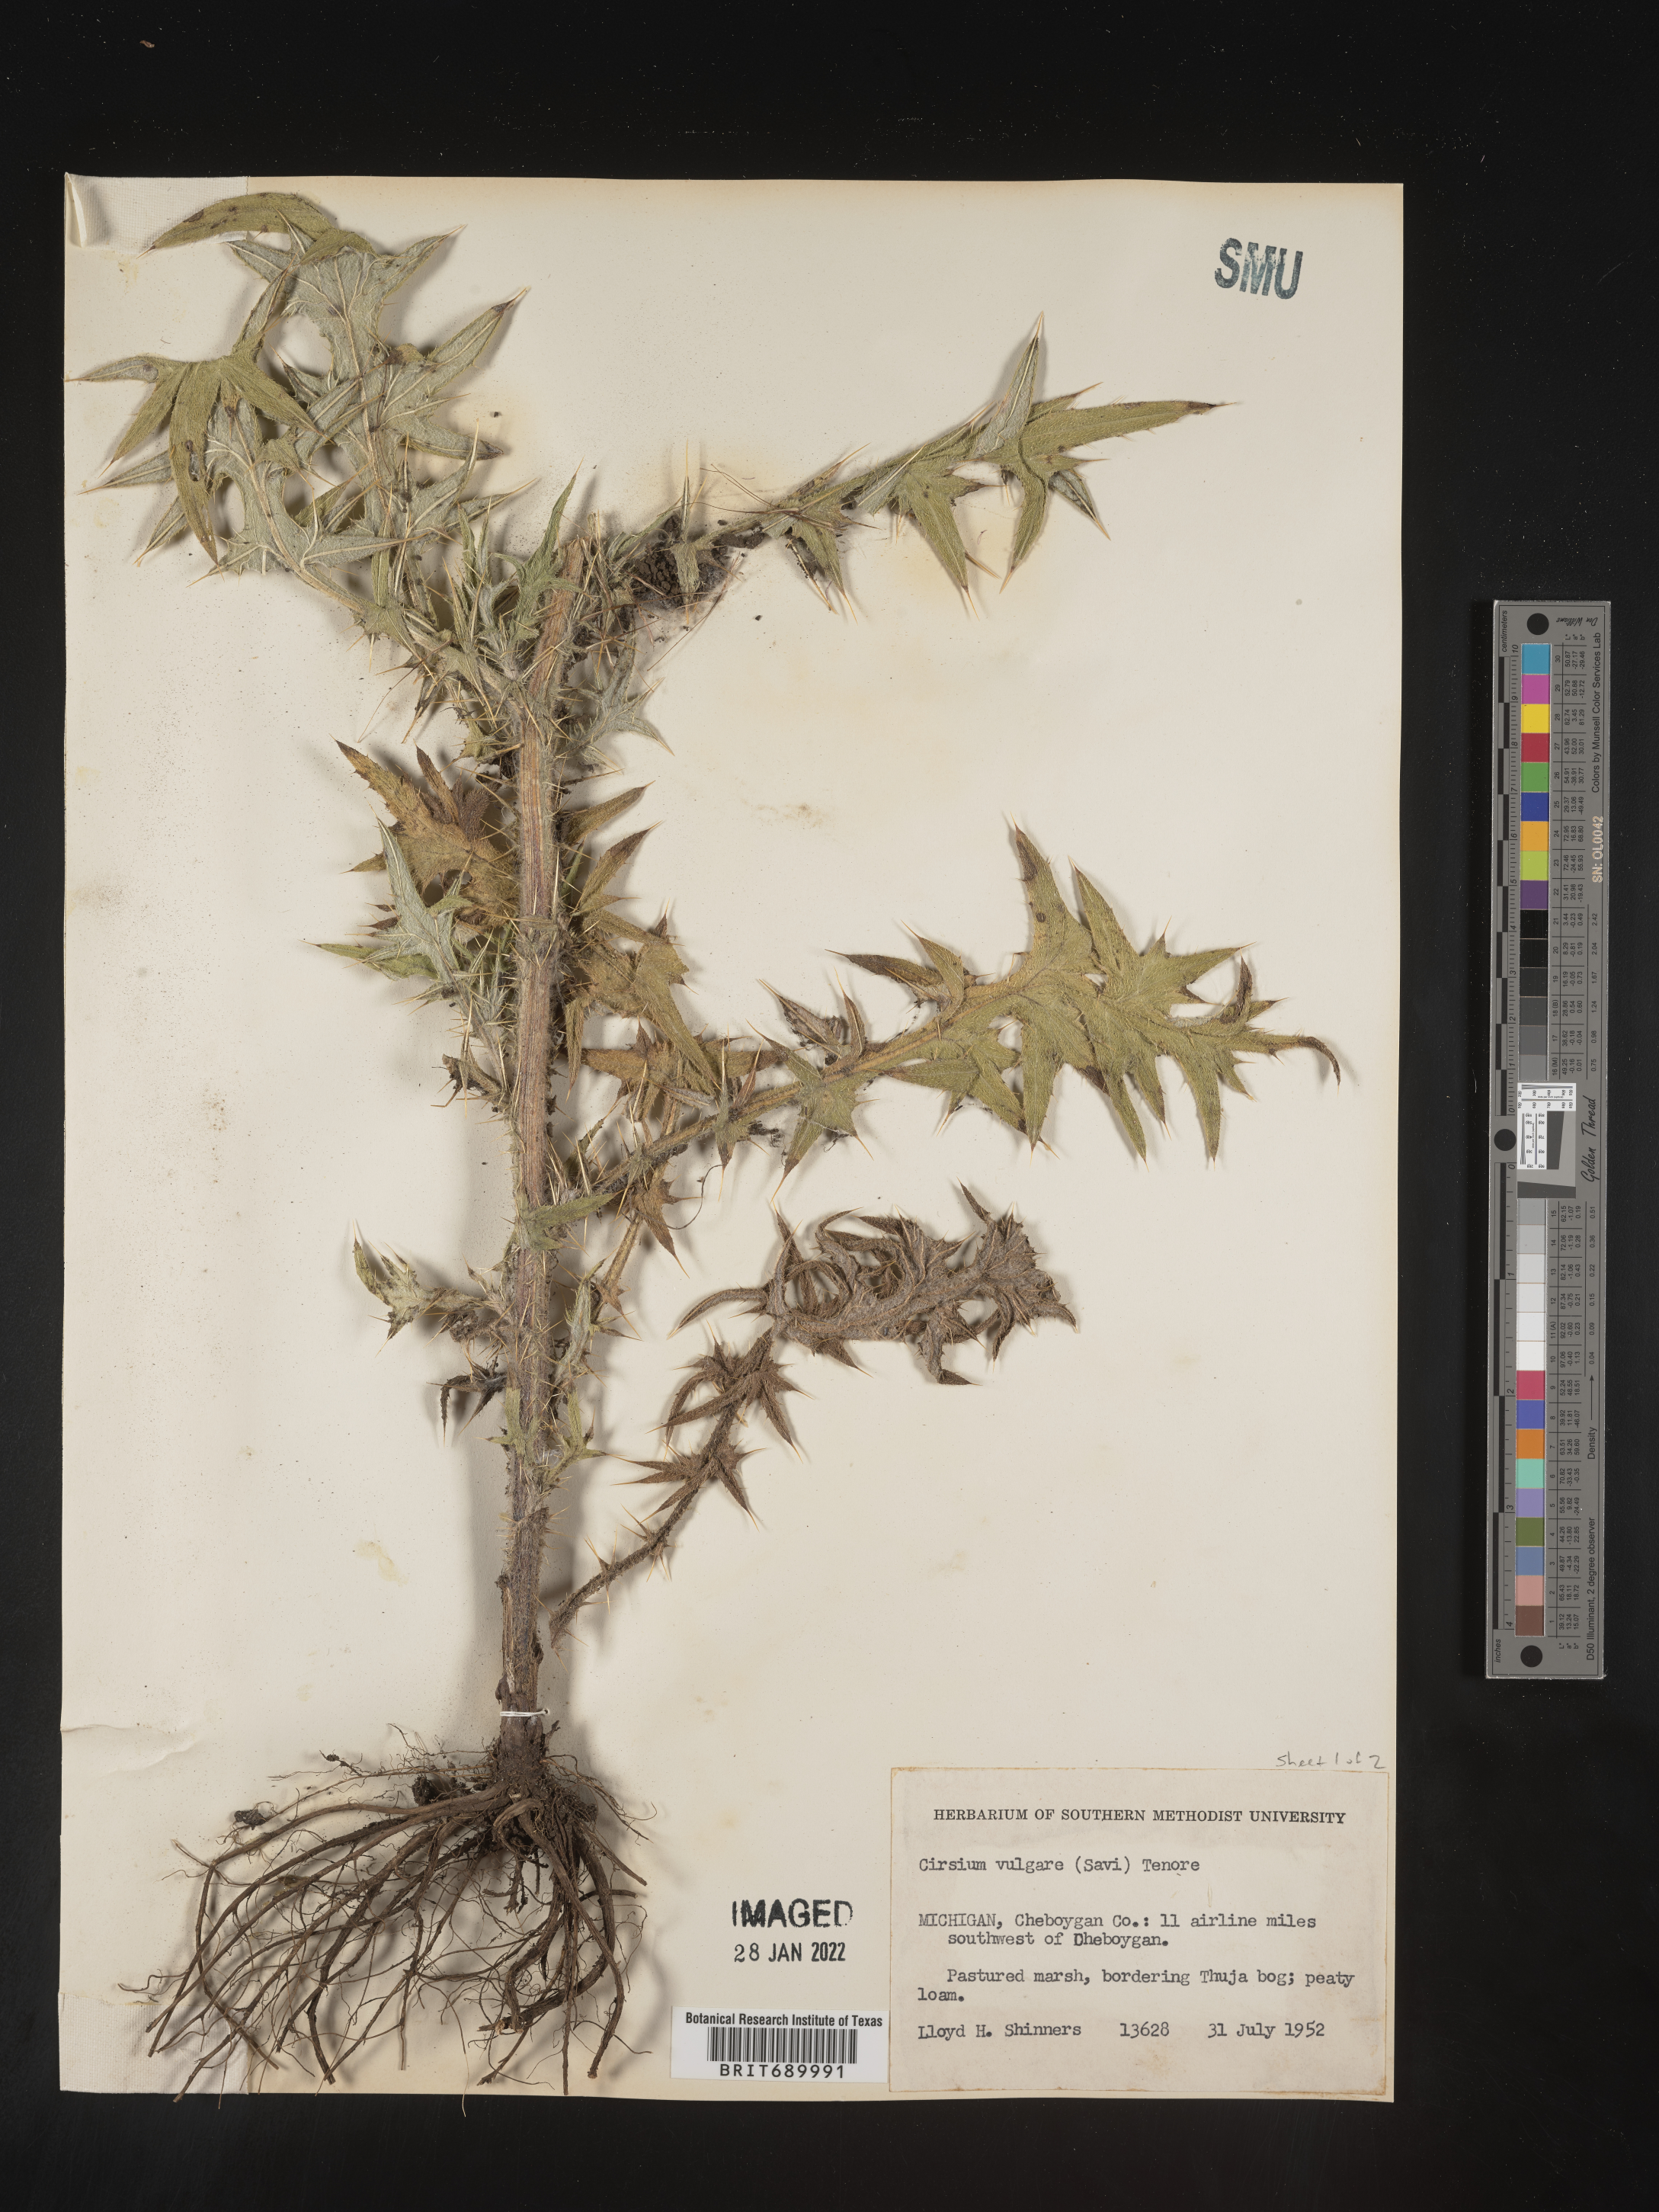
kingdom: Plantae
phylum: Tracheophyta
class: Magnoliopsida
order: Asterales
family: Asteraceae
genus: Cirsium
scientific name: Cirsium vulgare
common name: Bull thistle
